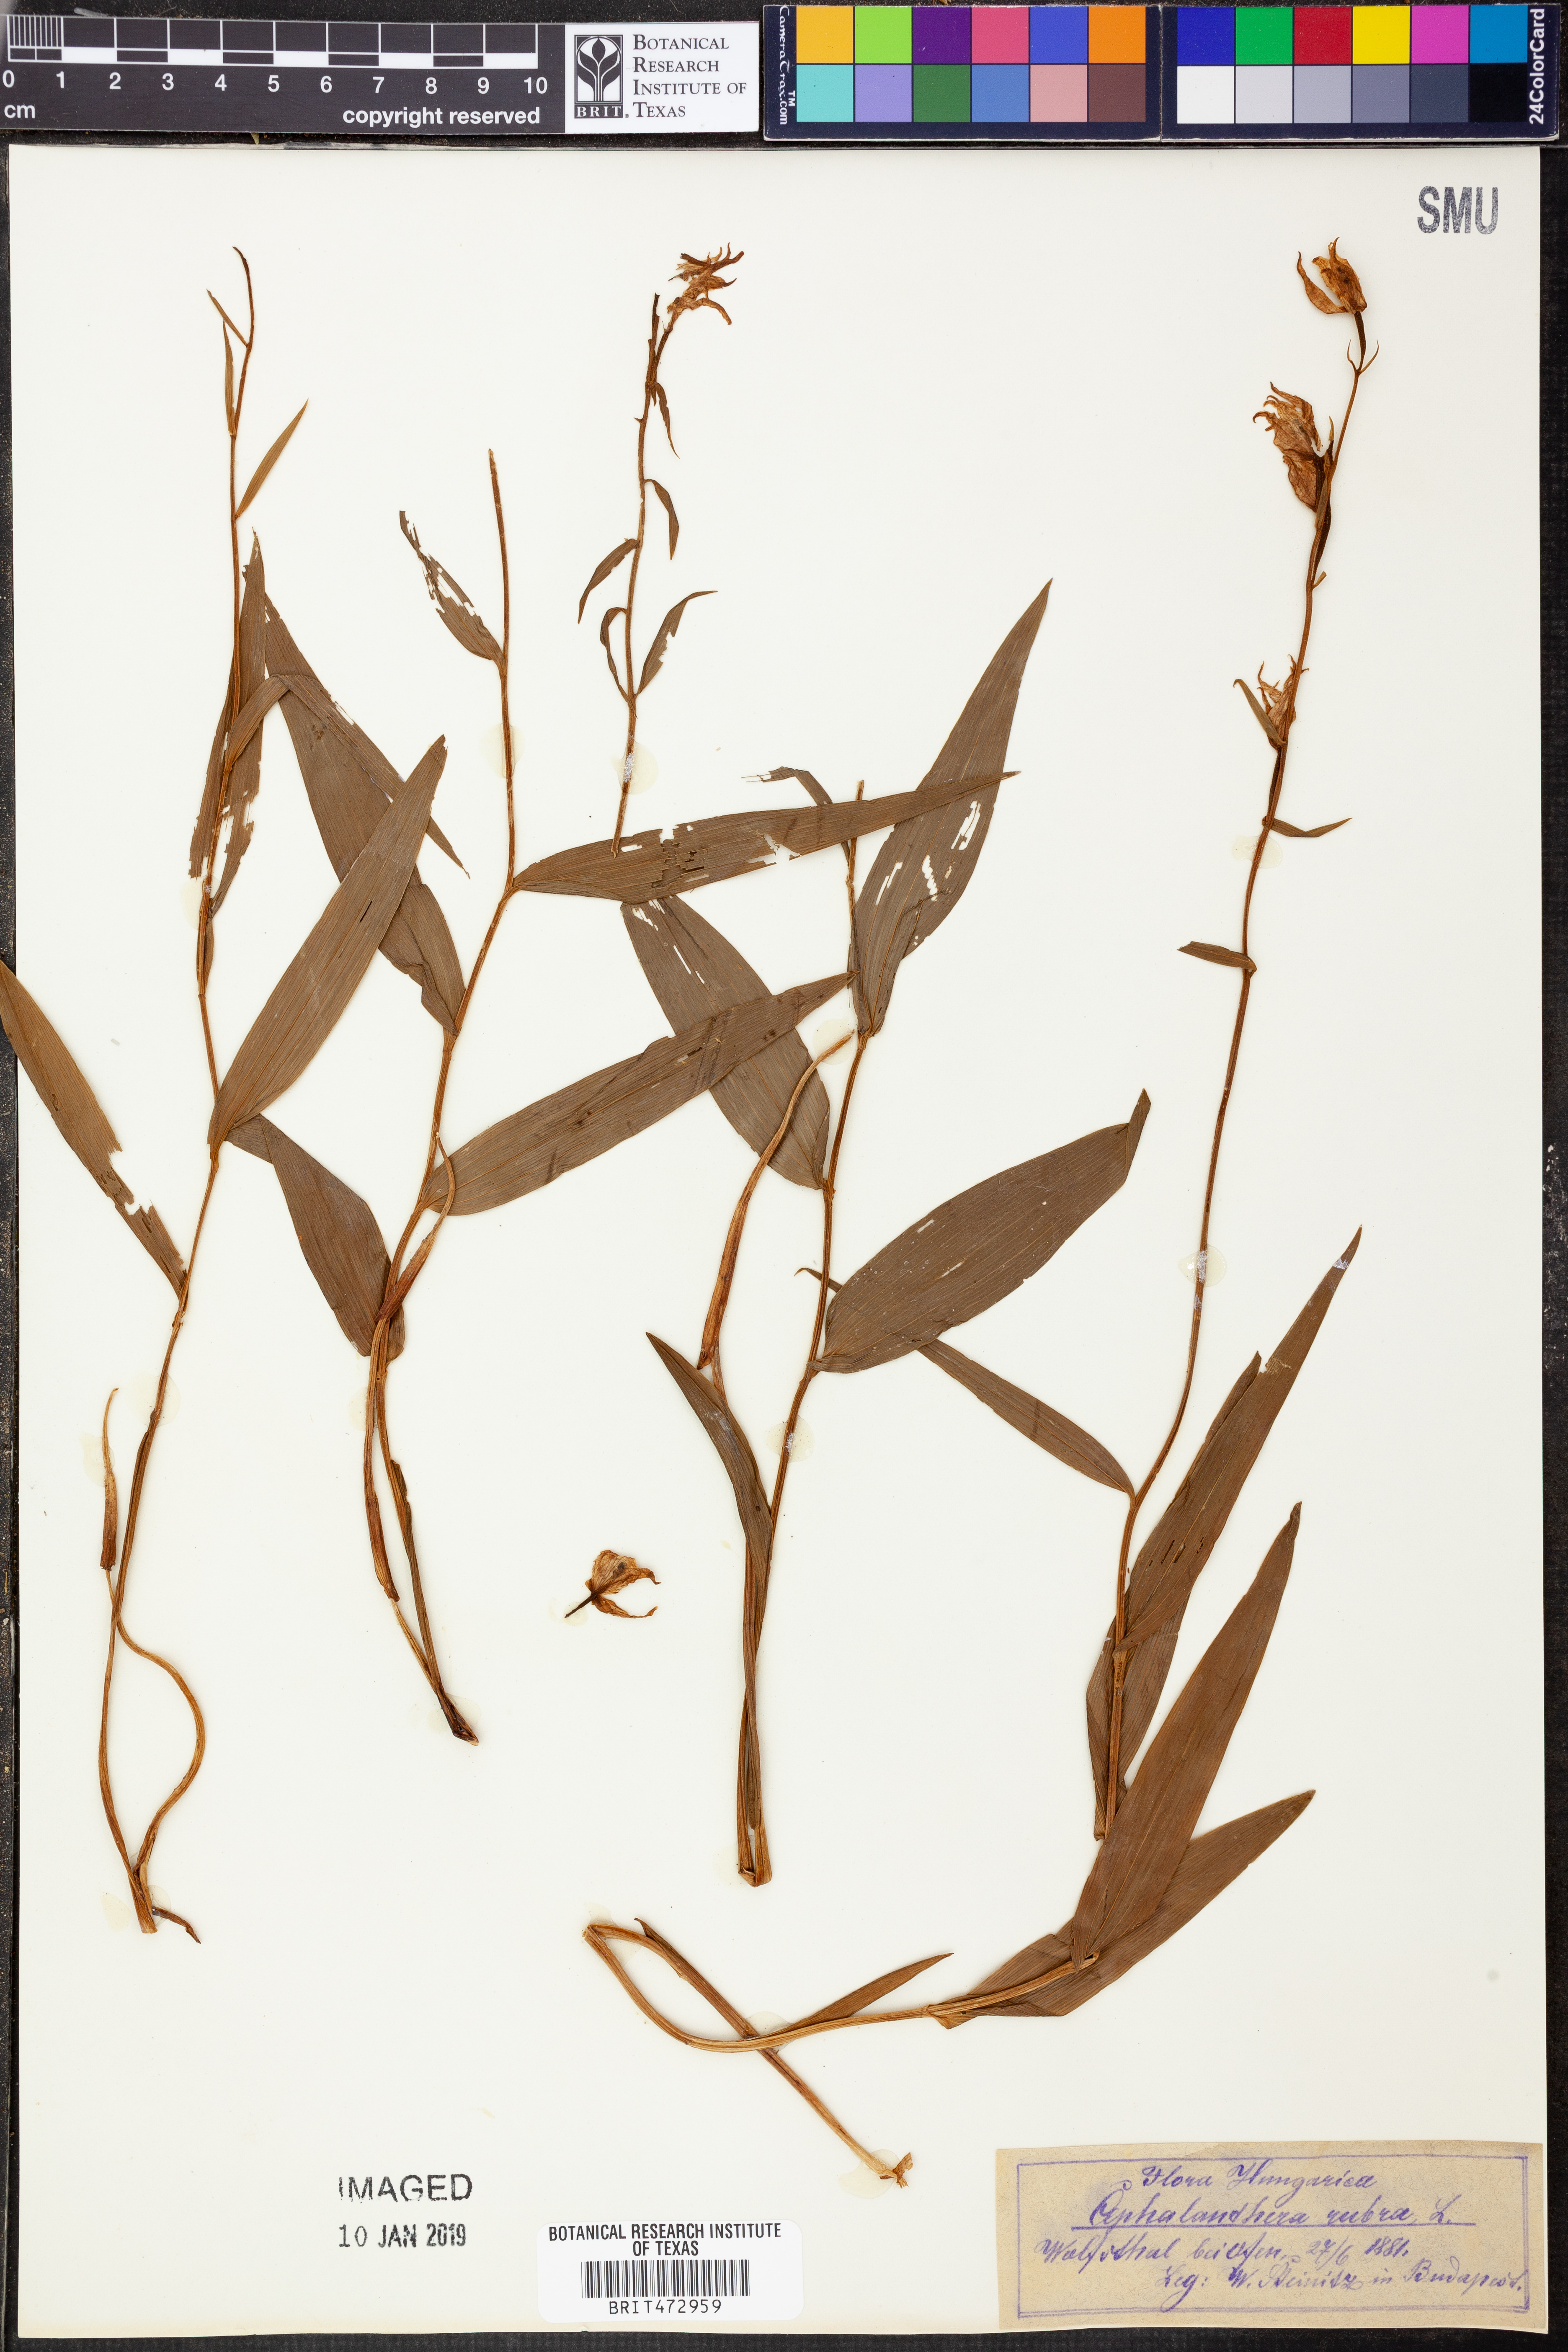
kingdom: Plantae
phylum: Tracheophyta
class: Liliopsida
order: Asparagales
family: Orchidaceae
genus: Cephalanthera
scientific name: Cephalanthera rubra
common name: Red helleborine
